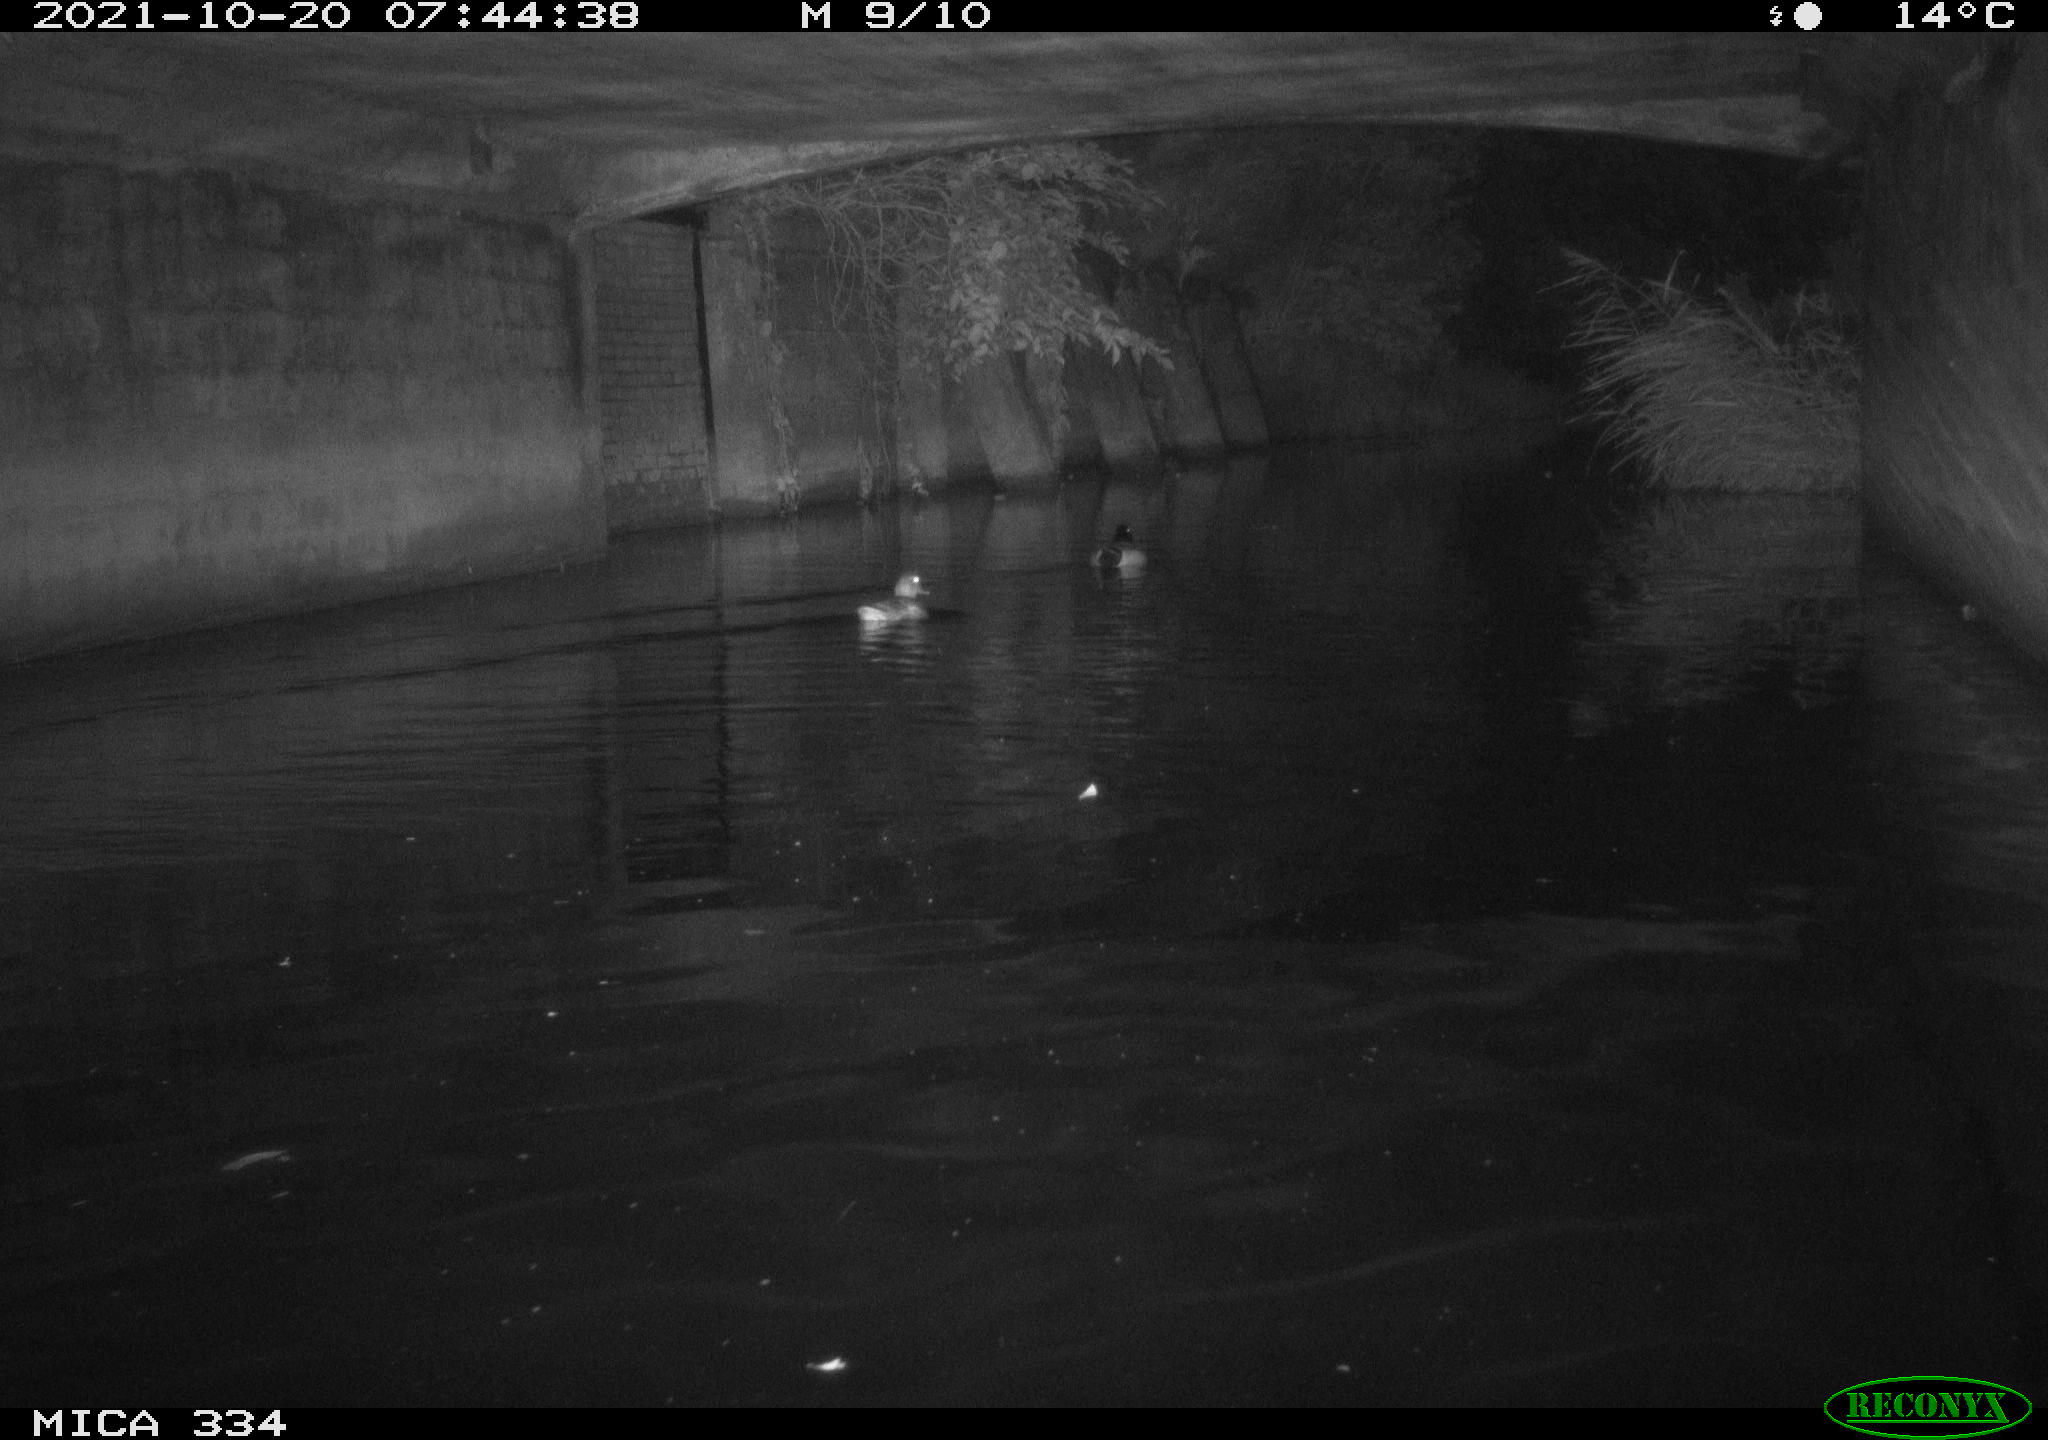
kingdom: Animalia
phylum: Chordata
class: Aves
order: Anseriformes
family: Anatidae
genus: Anas
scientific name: Anas platyrhynchos
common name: Mallard
